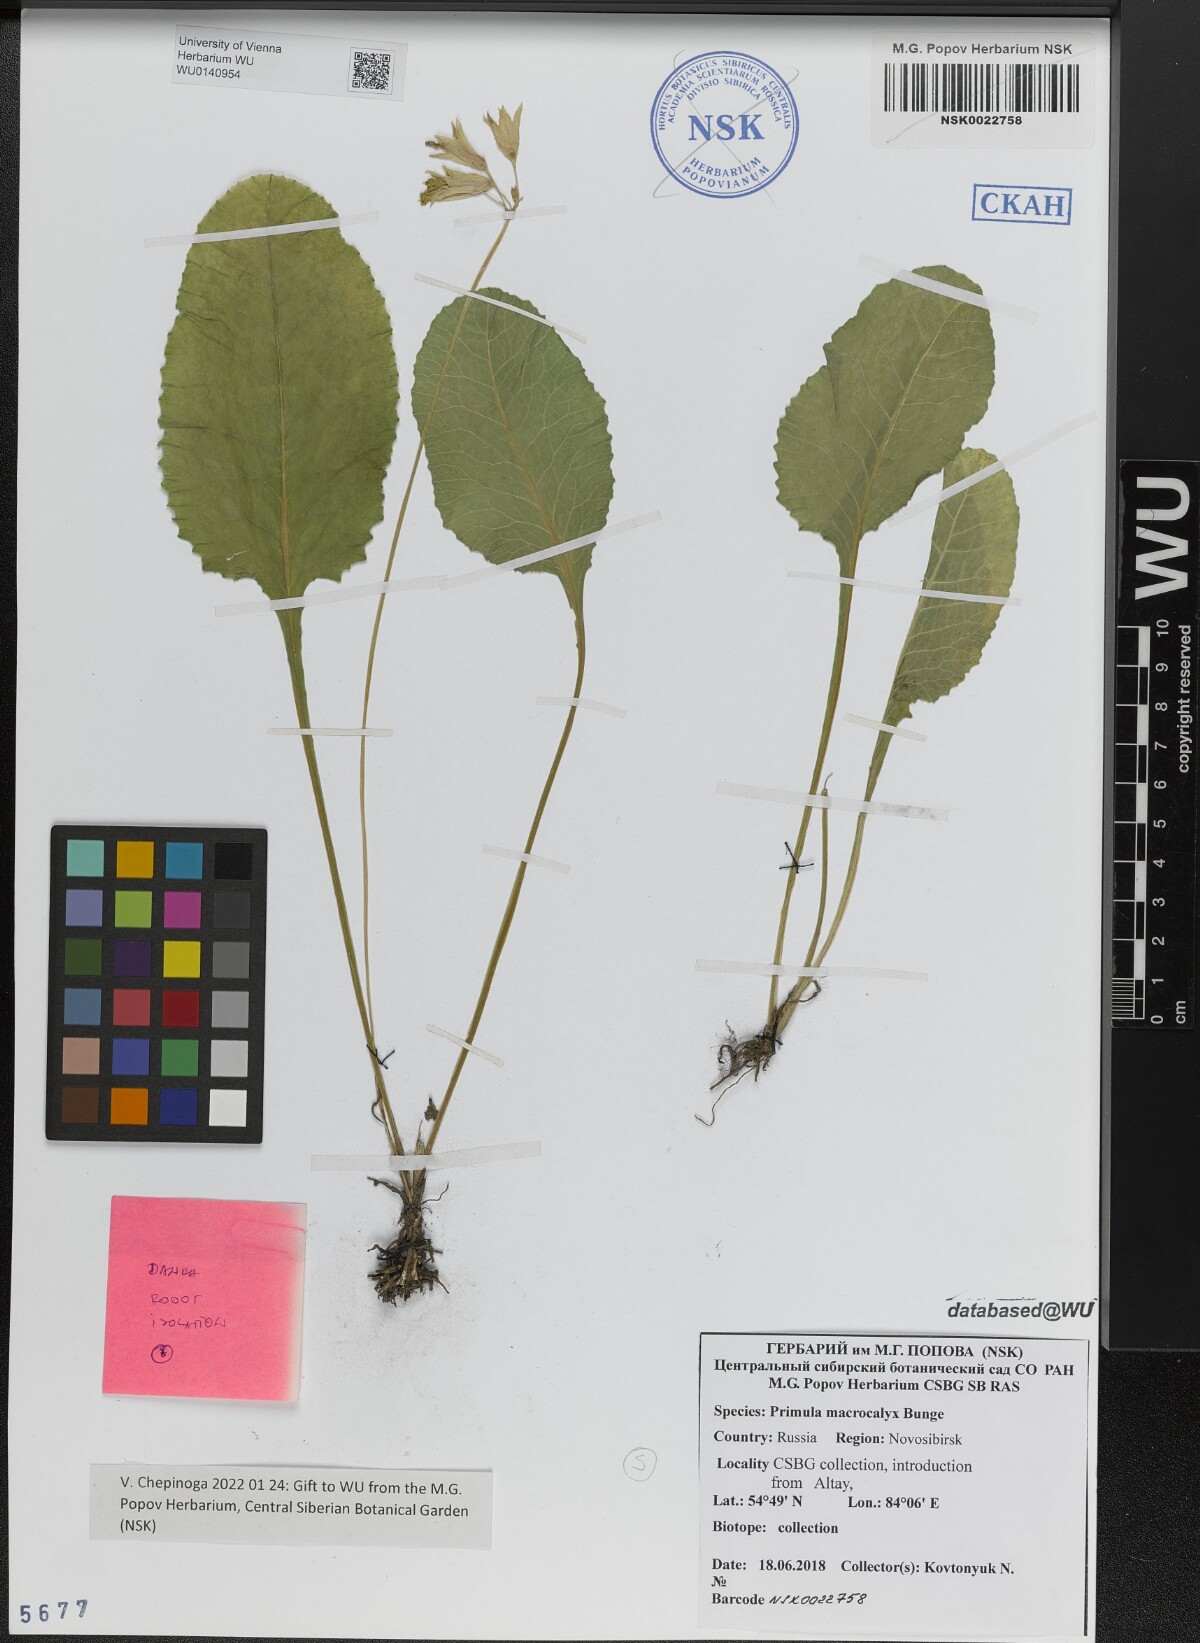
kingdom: Plantae
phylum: Tracheophyta
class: Magnoliopsida
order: Ericales
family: Primulaceae
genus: Primula
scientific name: Primula veris
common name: Cowslip
